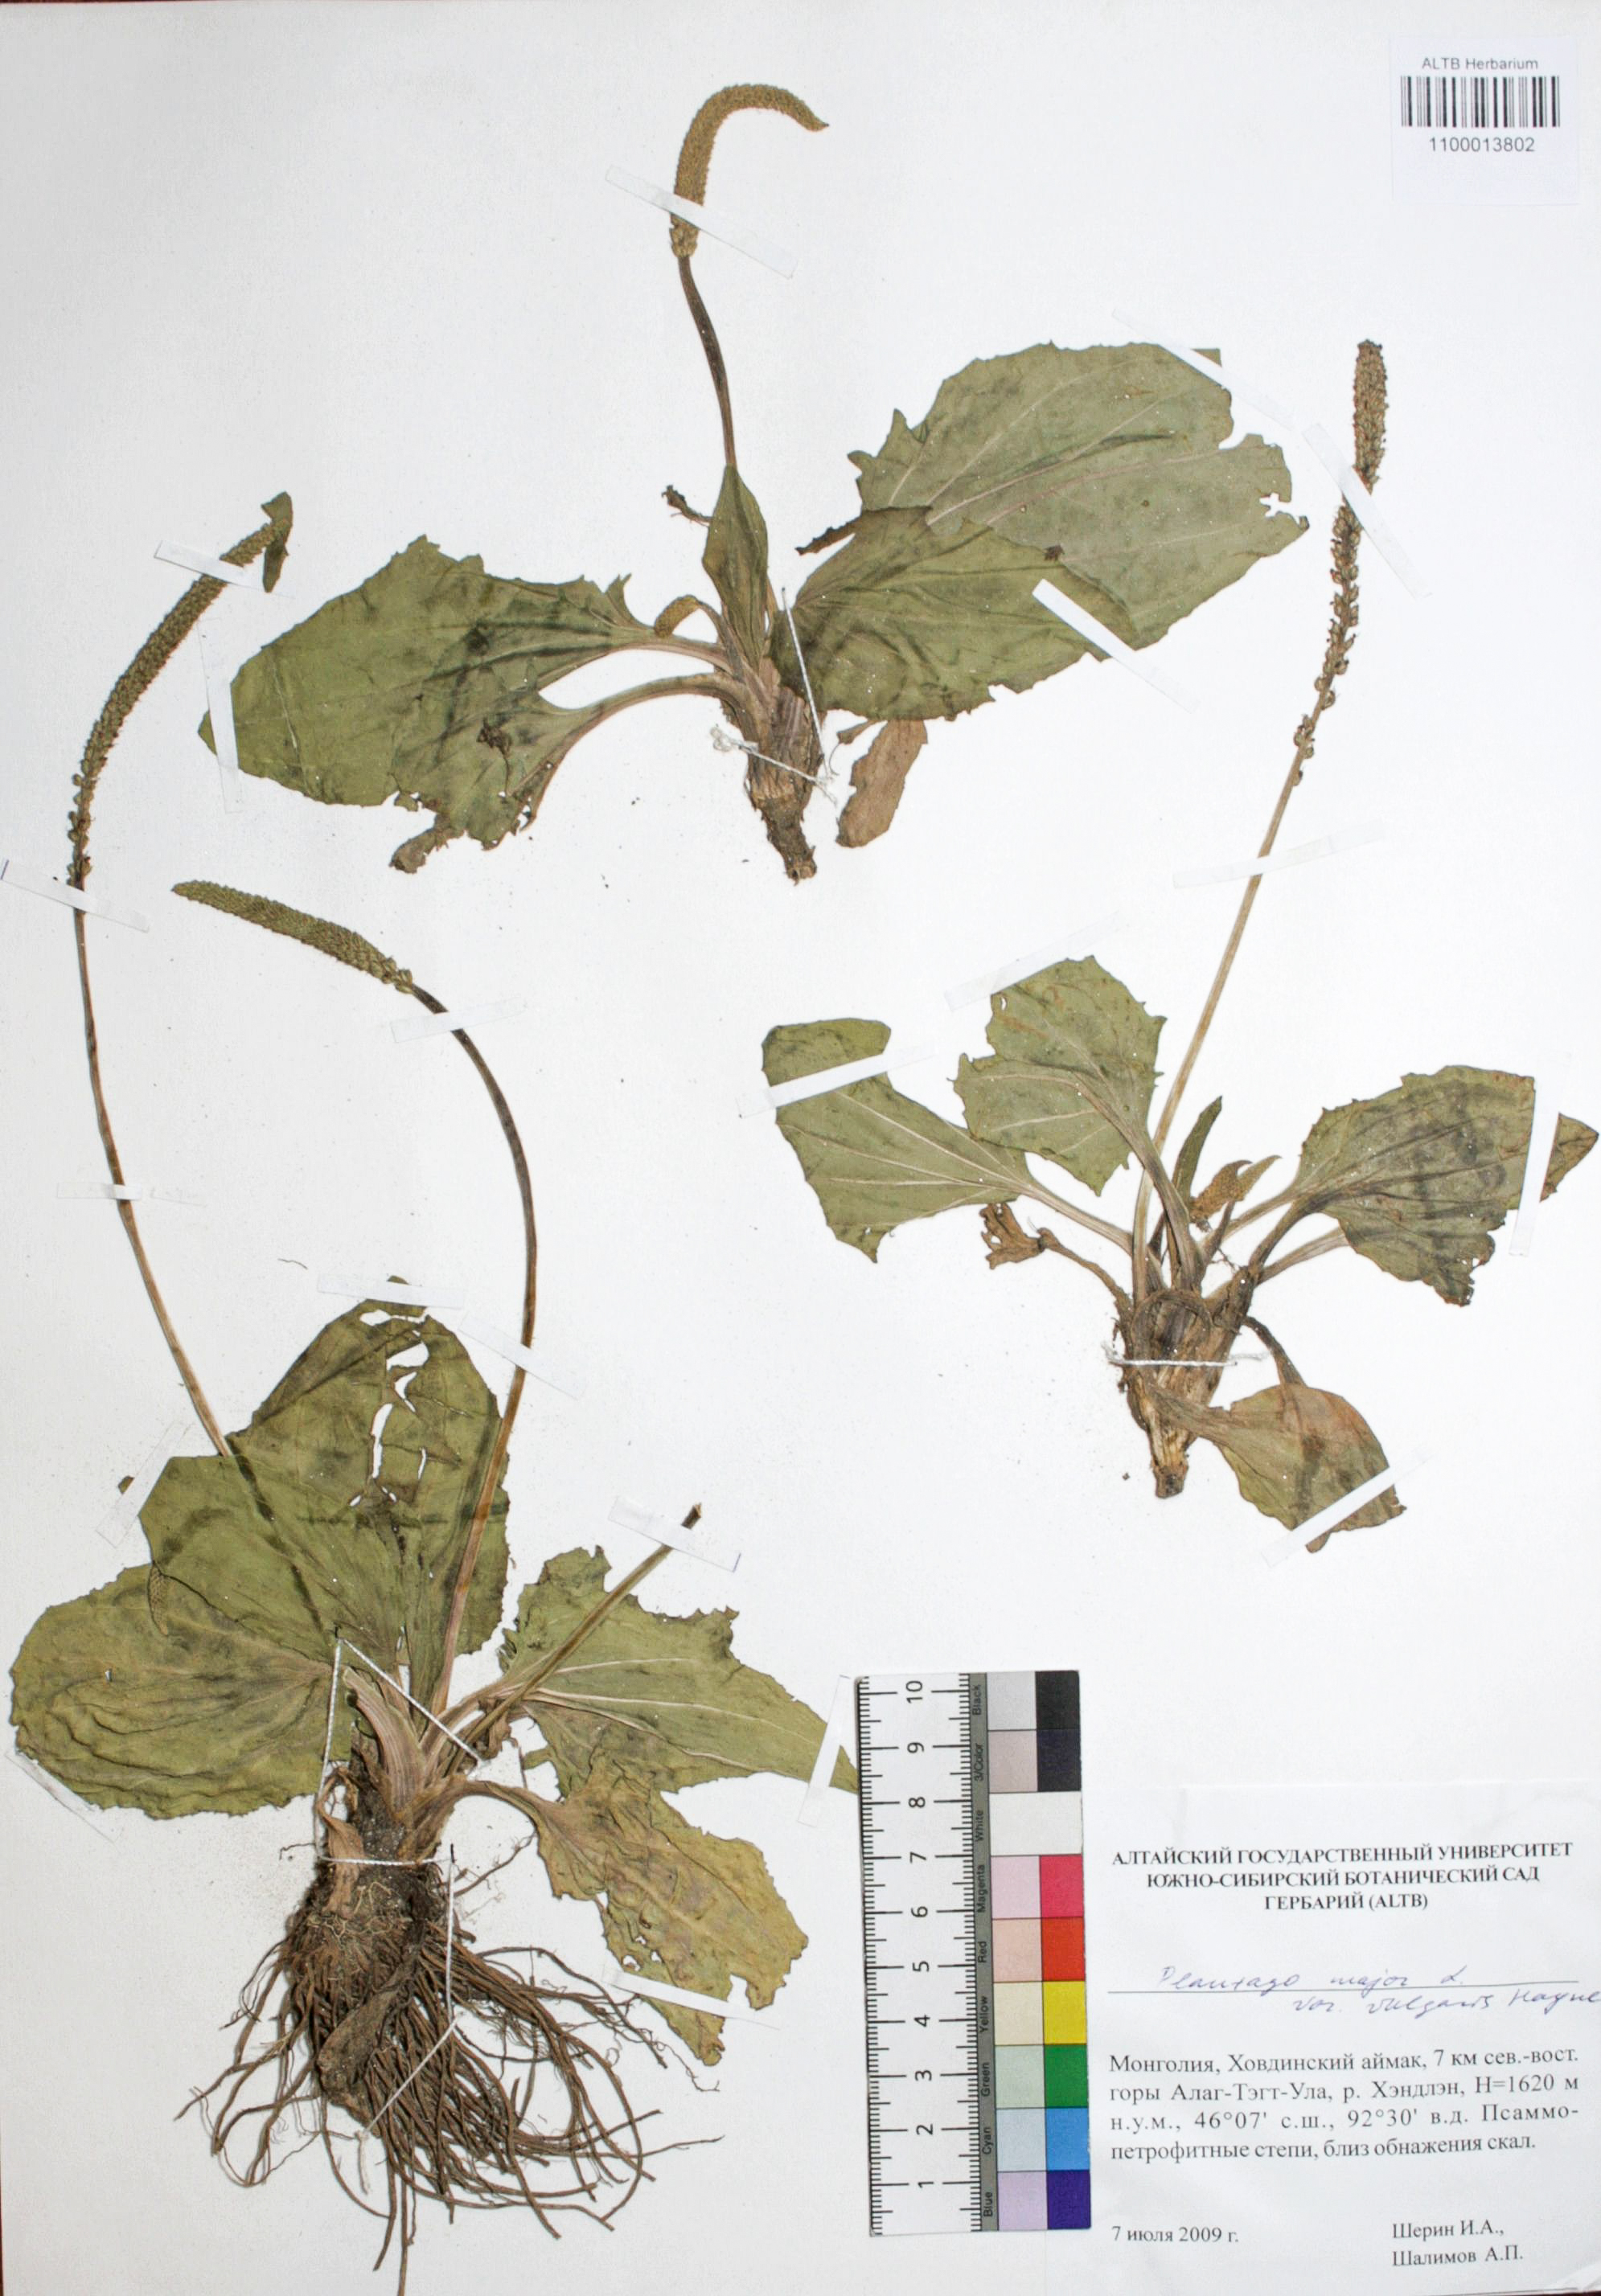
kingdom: Plantae
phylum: Tracheophyta
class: Magnoliopsida
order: Lamiales
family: Plantaginaceae
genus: Plantago
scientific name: Plantago major
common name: Common plantain
